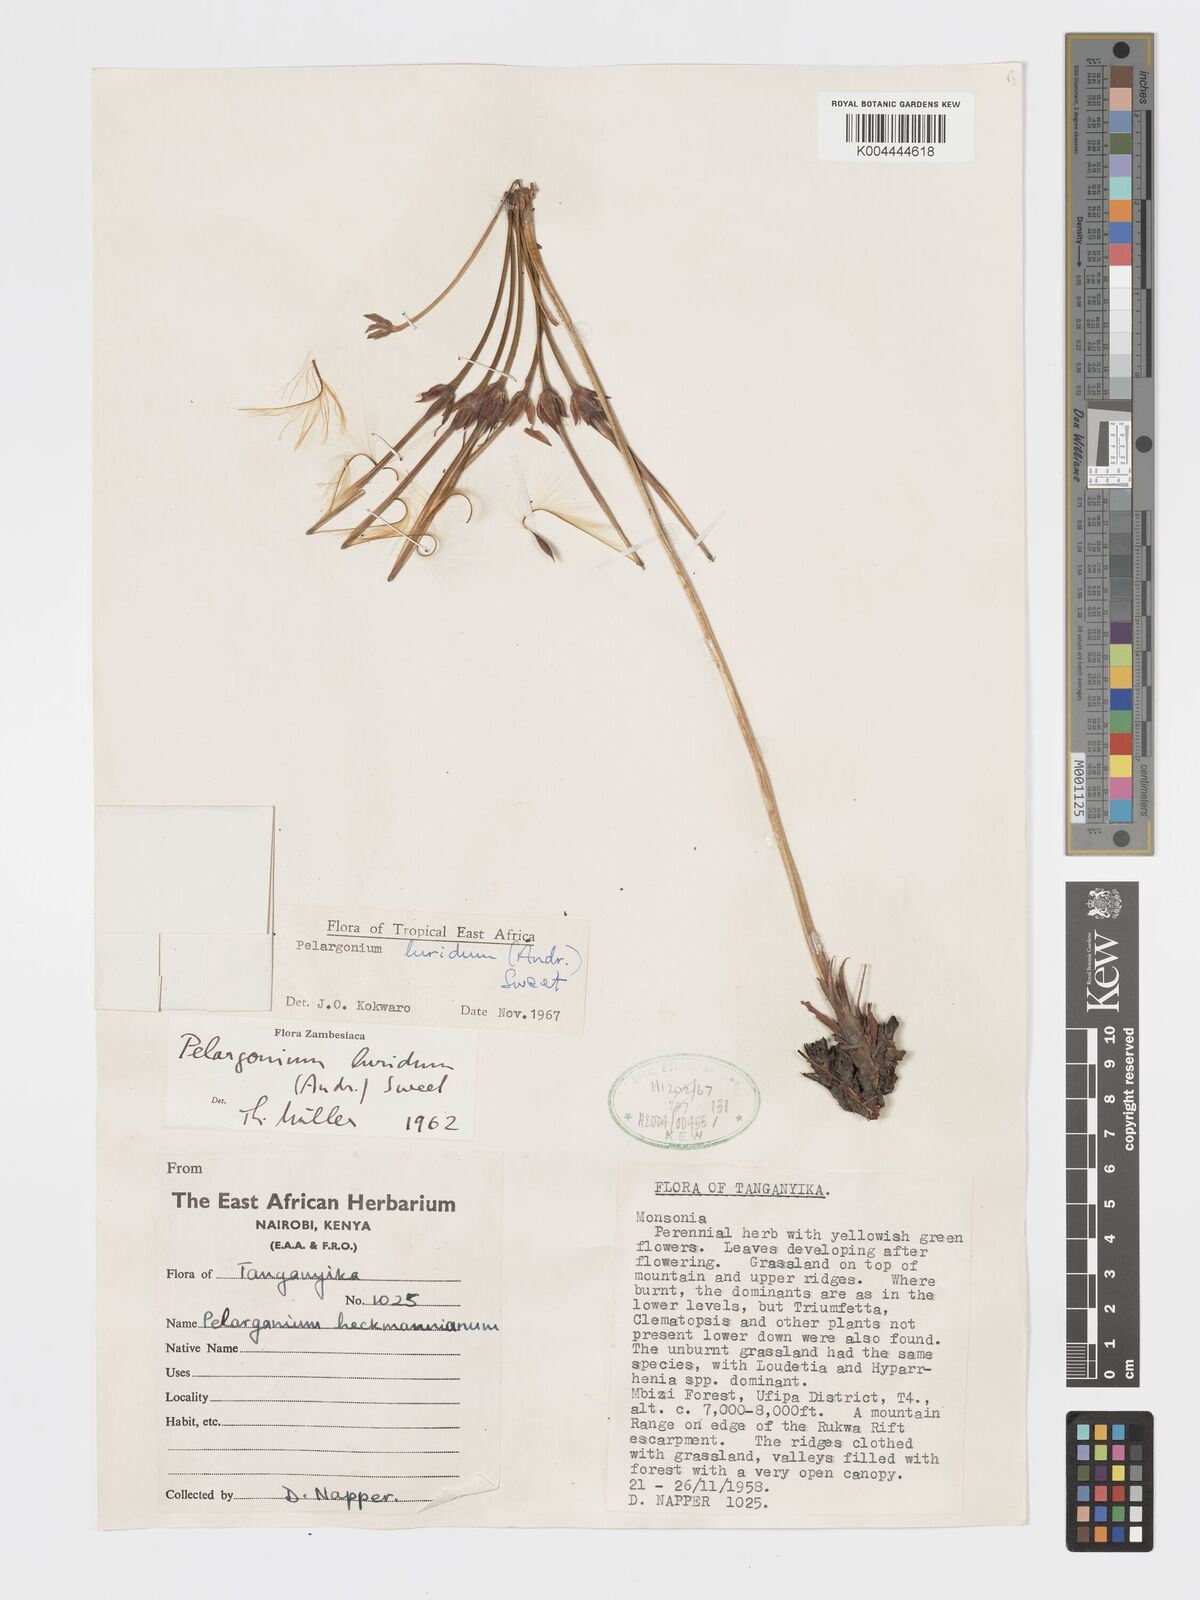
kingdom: Plantae
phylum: Tracheophyta
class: Magnoliopsida
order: Geraniales
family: Geraniaceae
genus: Pelargonium
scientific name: Pelargonium luridum
